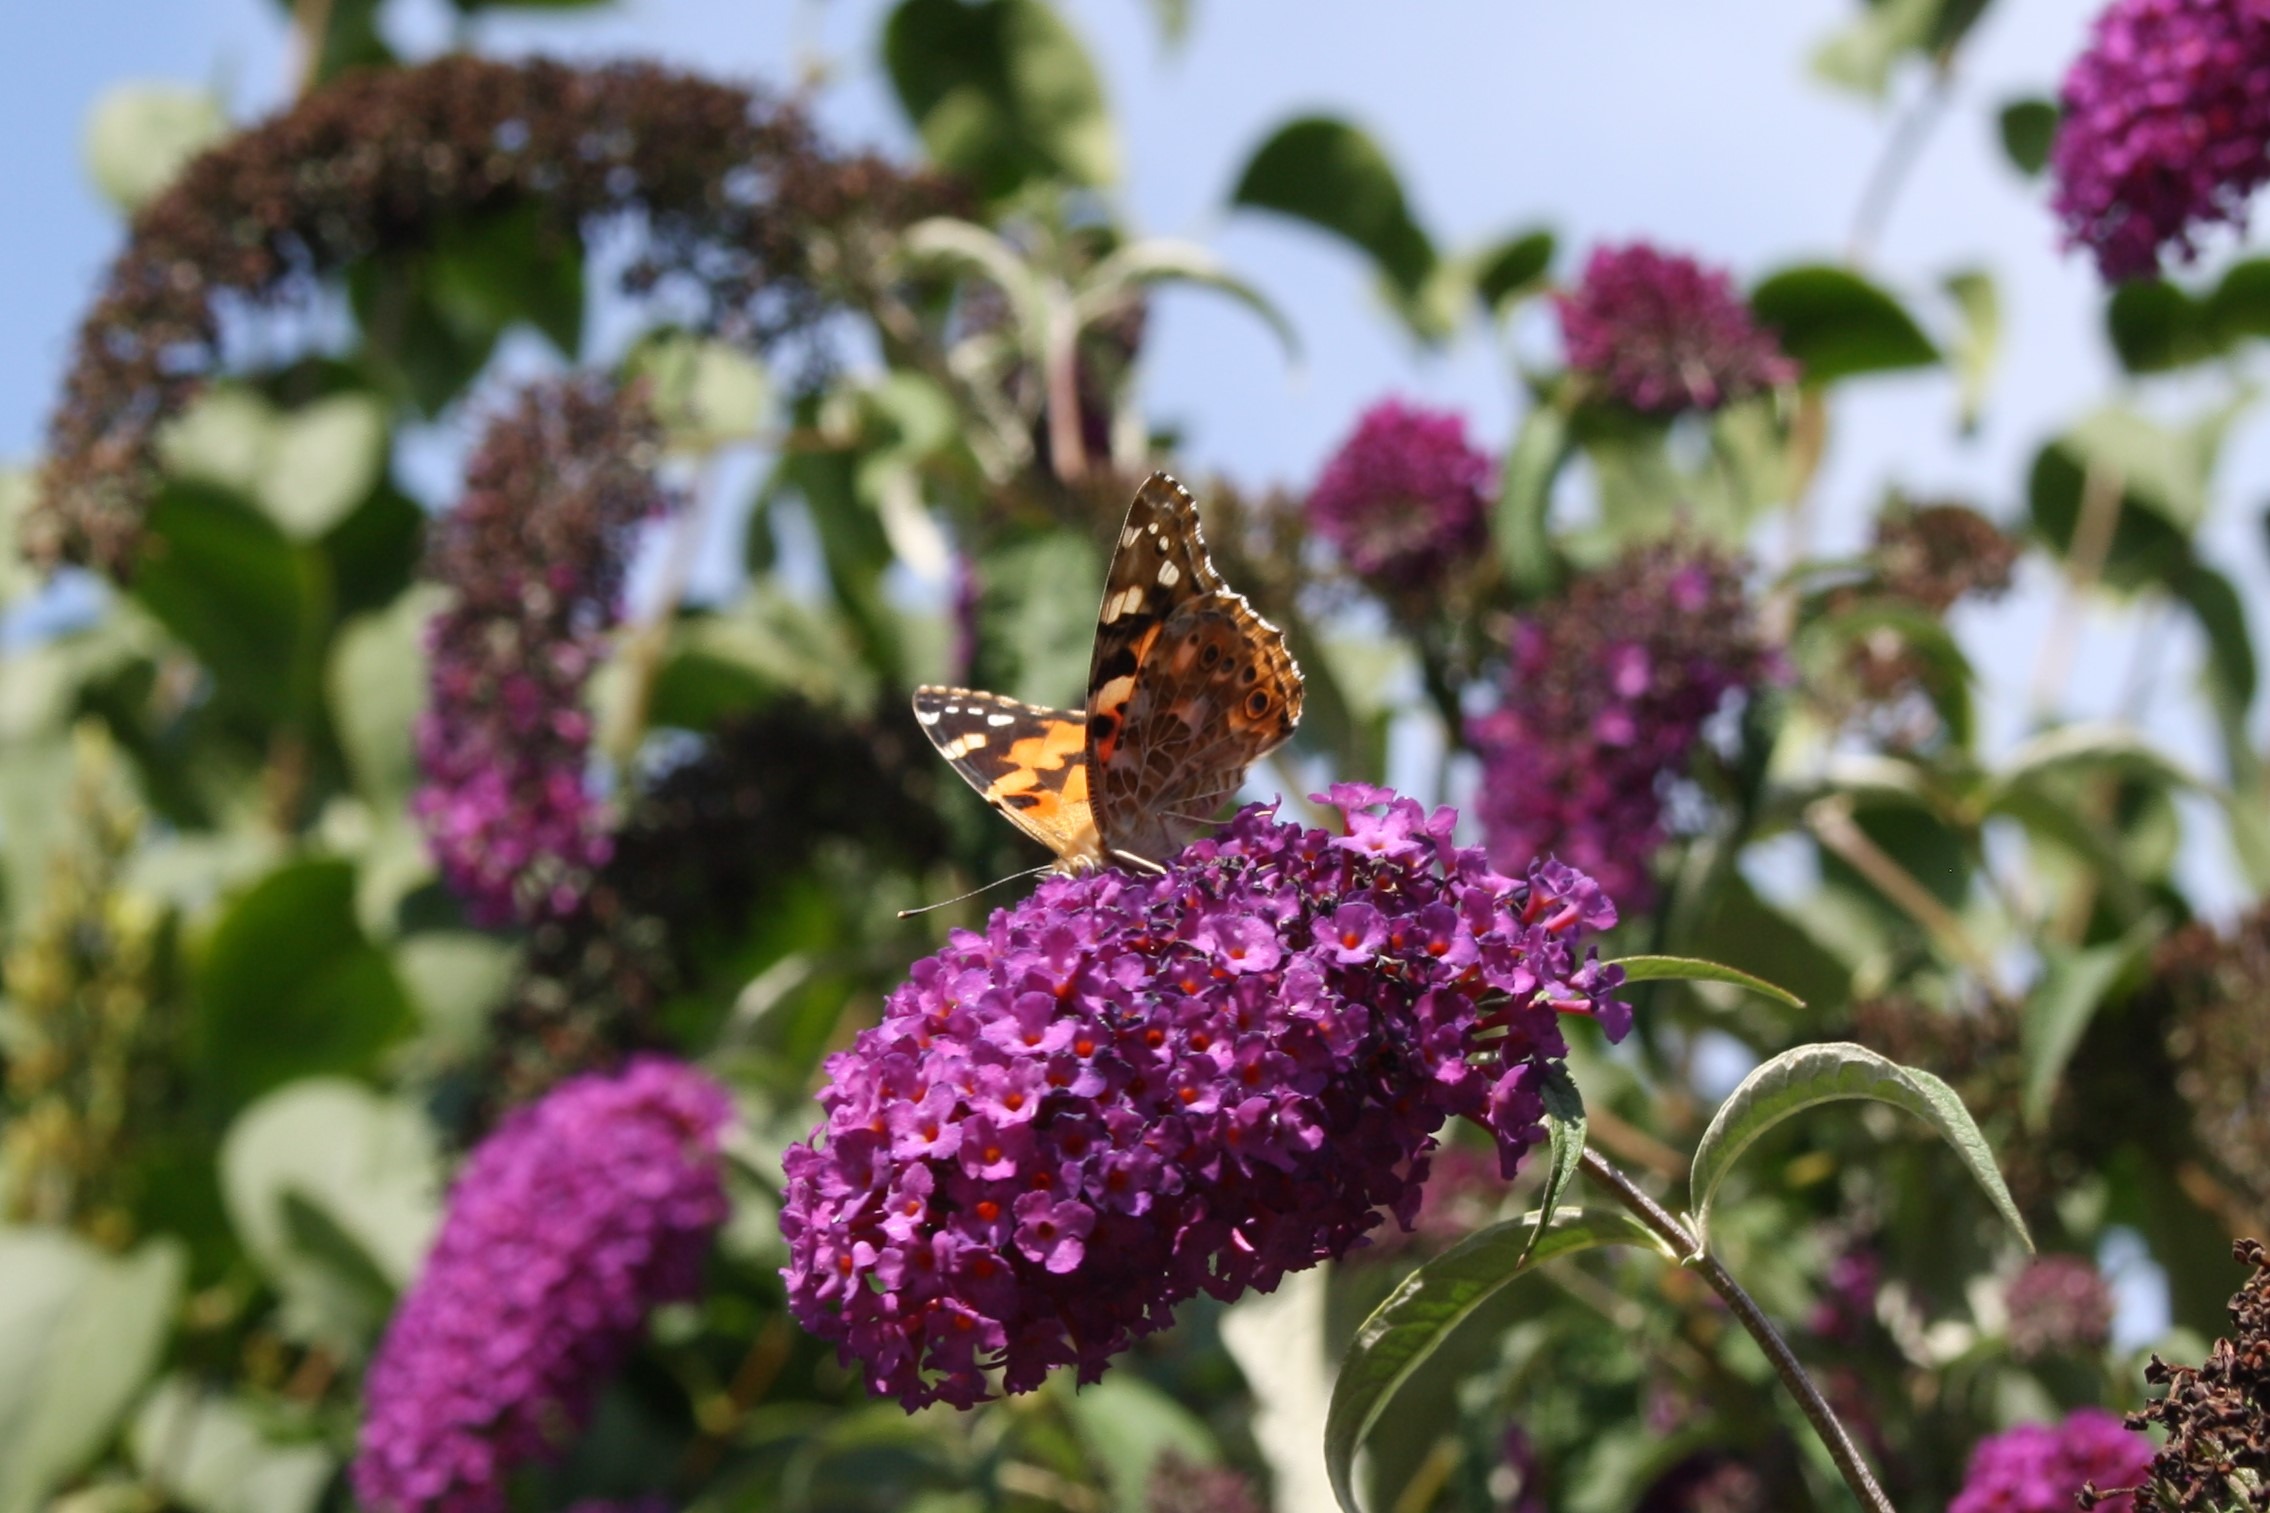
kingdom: Animalia
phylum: Arthropoda
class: Insecta
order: Lepidoptera
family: Nymphalidae
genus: Vanessa
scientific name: Vanessa cardui
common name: Tidselsommerfugl
